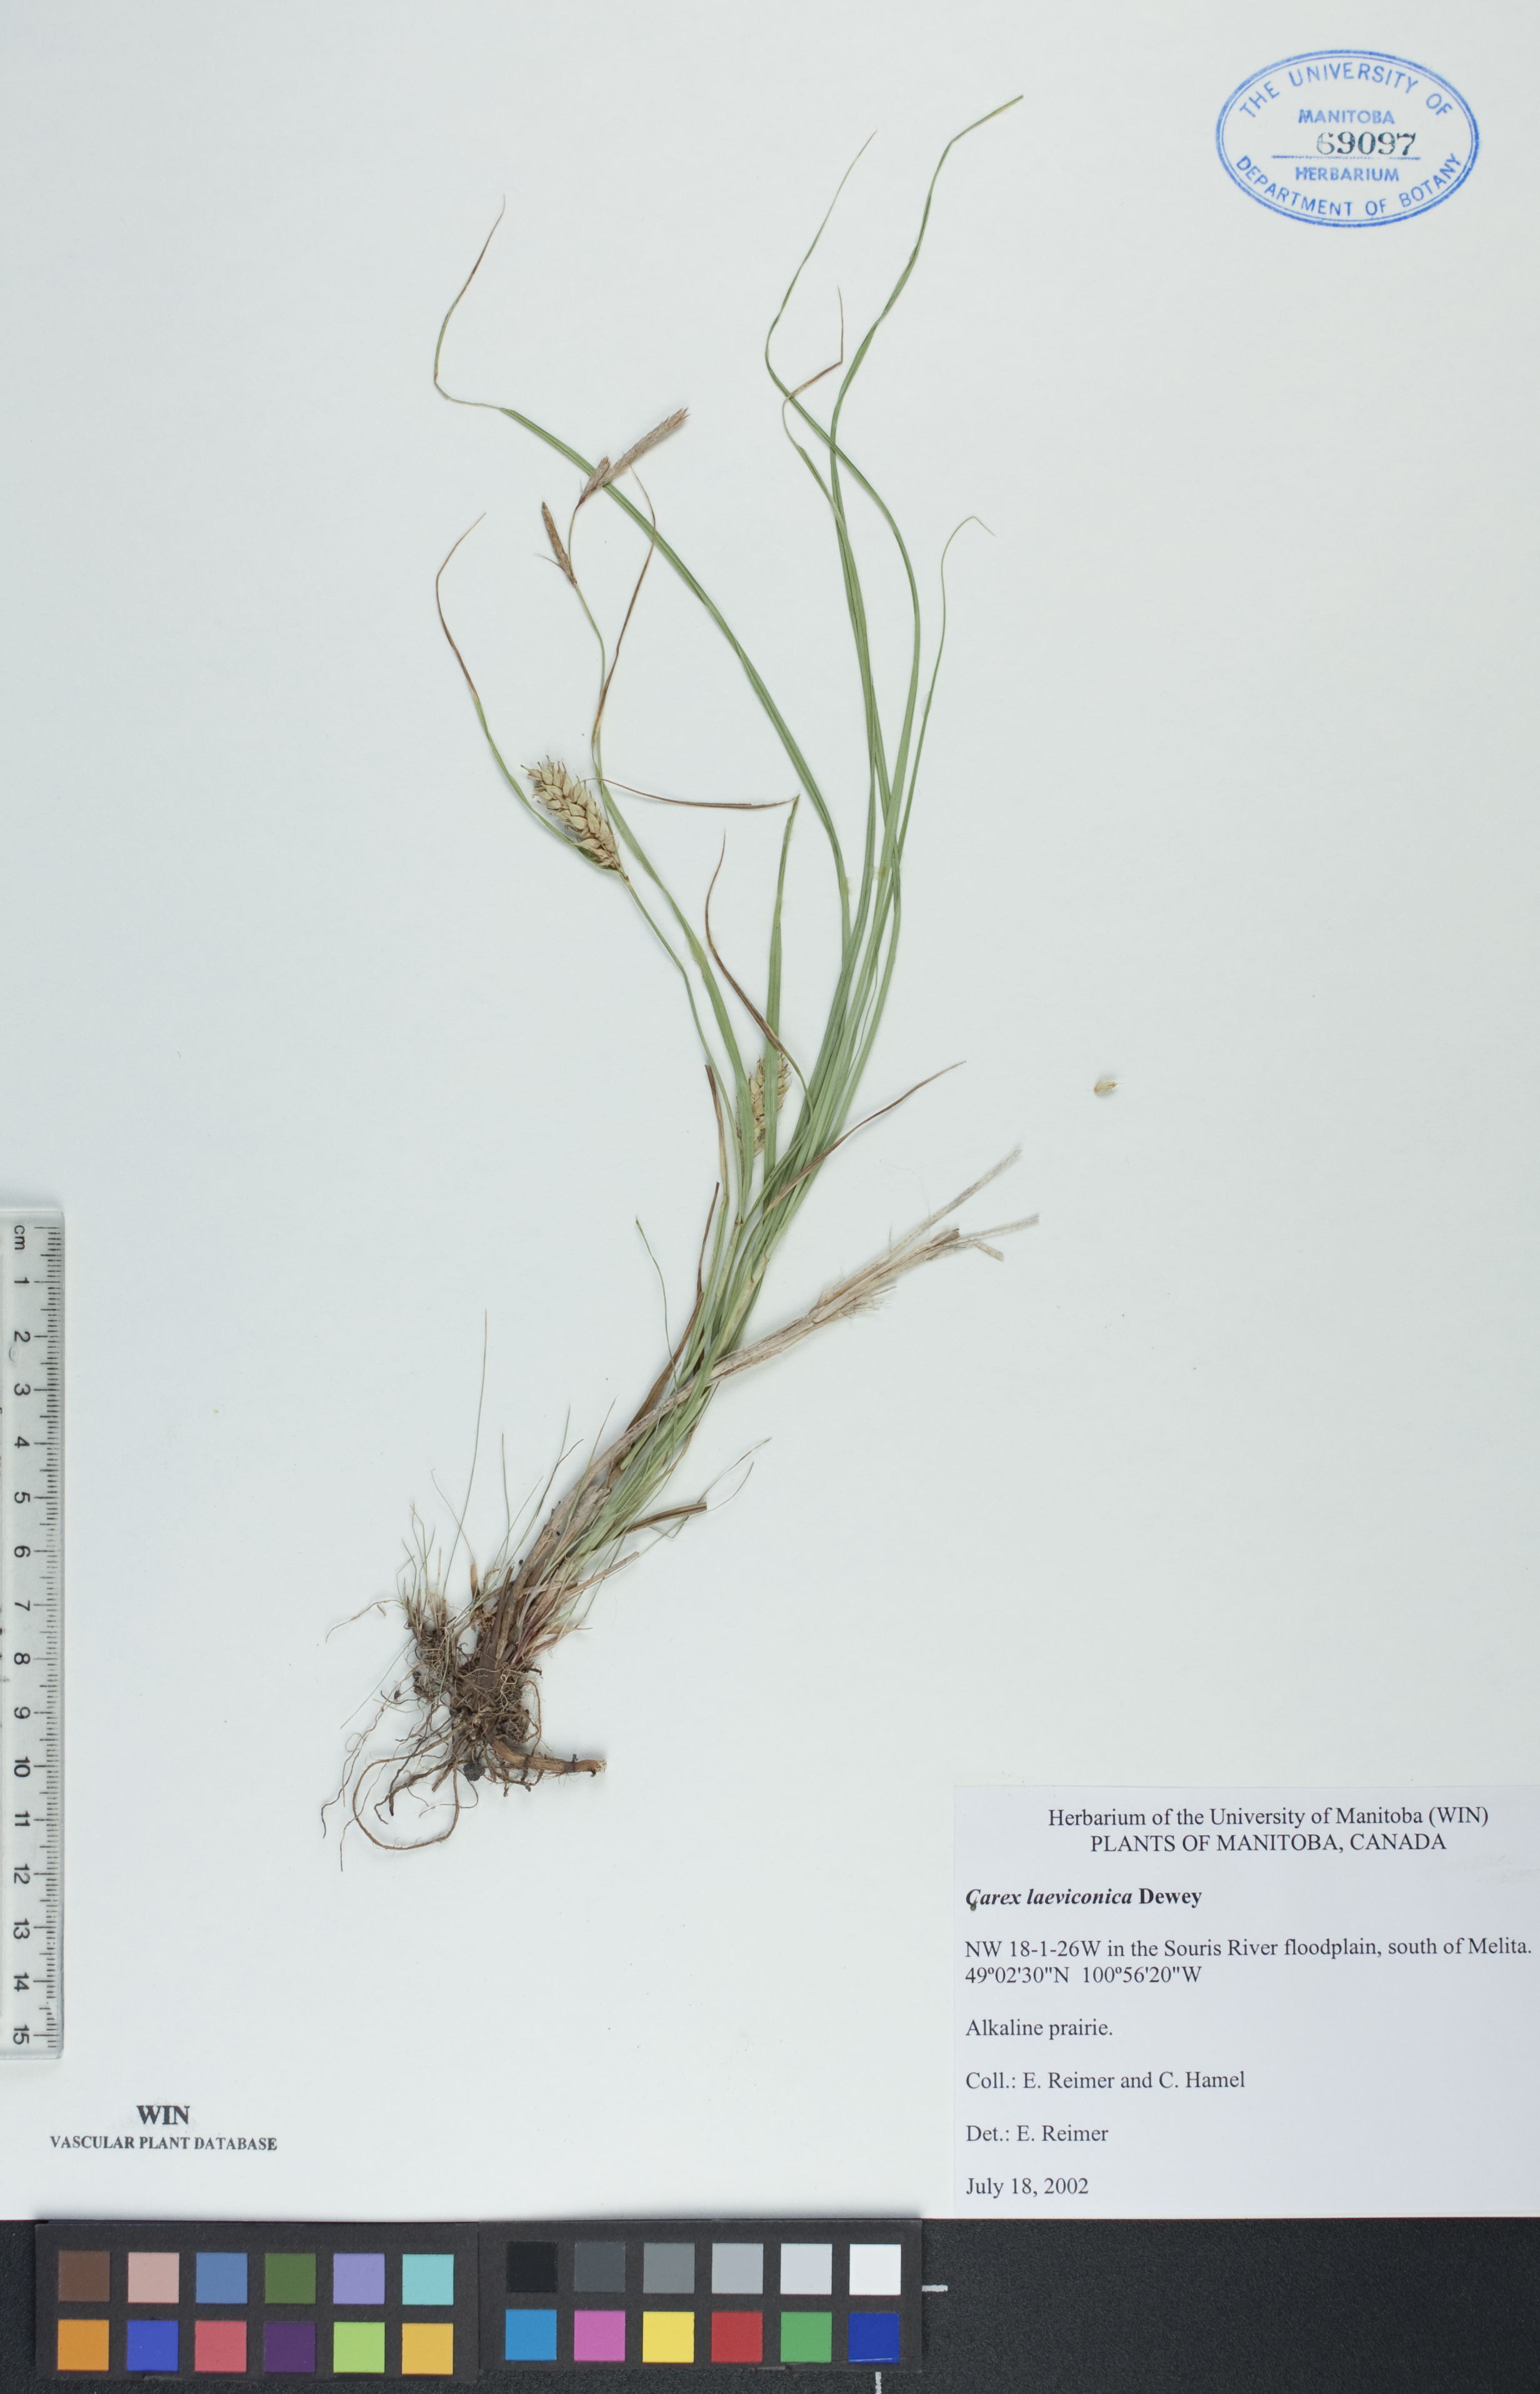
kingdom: Plantae
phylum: Tracheophyta
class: Liliopsida
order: Poales
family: Cyperaceae
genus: Carex
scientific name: Carex laeviconica
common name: Plains slough sedge
